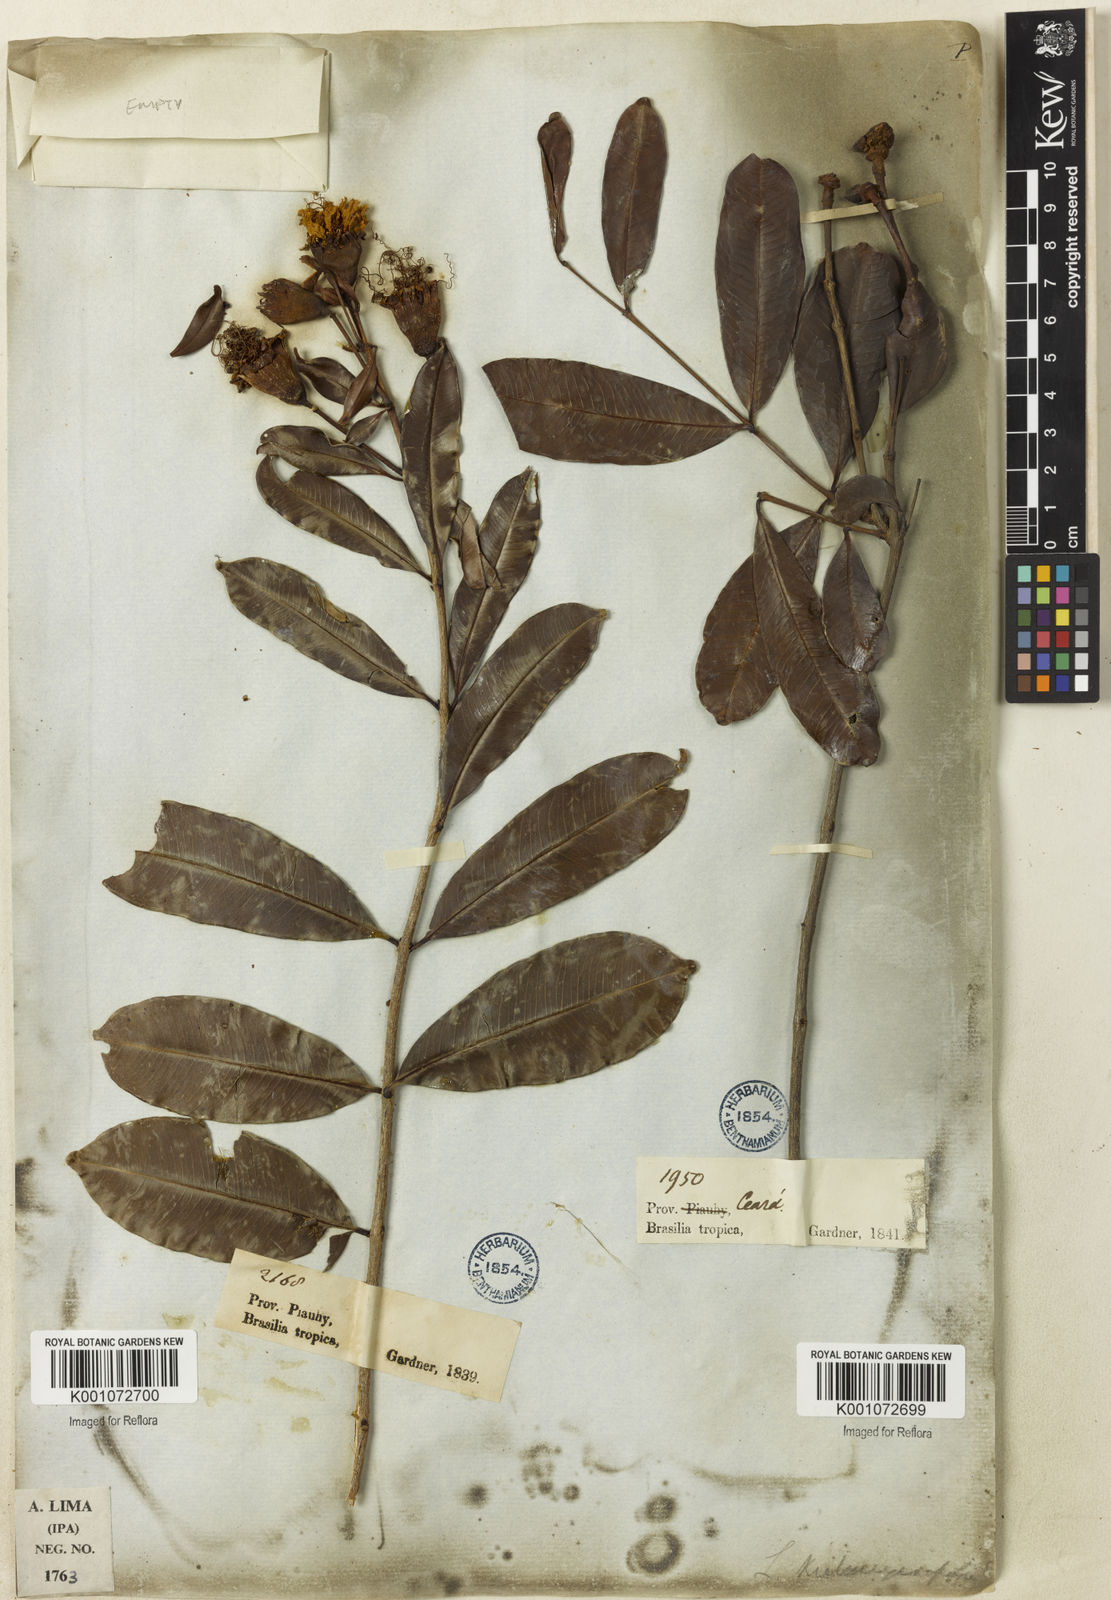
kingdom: Plantae
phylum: Tracheophyta
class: Magnoliopsida
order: Myrtales
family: Lythraceae
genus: Lafoensia
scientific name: Lafoensia vandelliana
